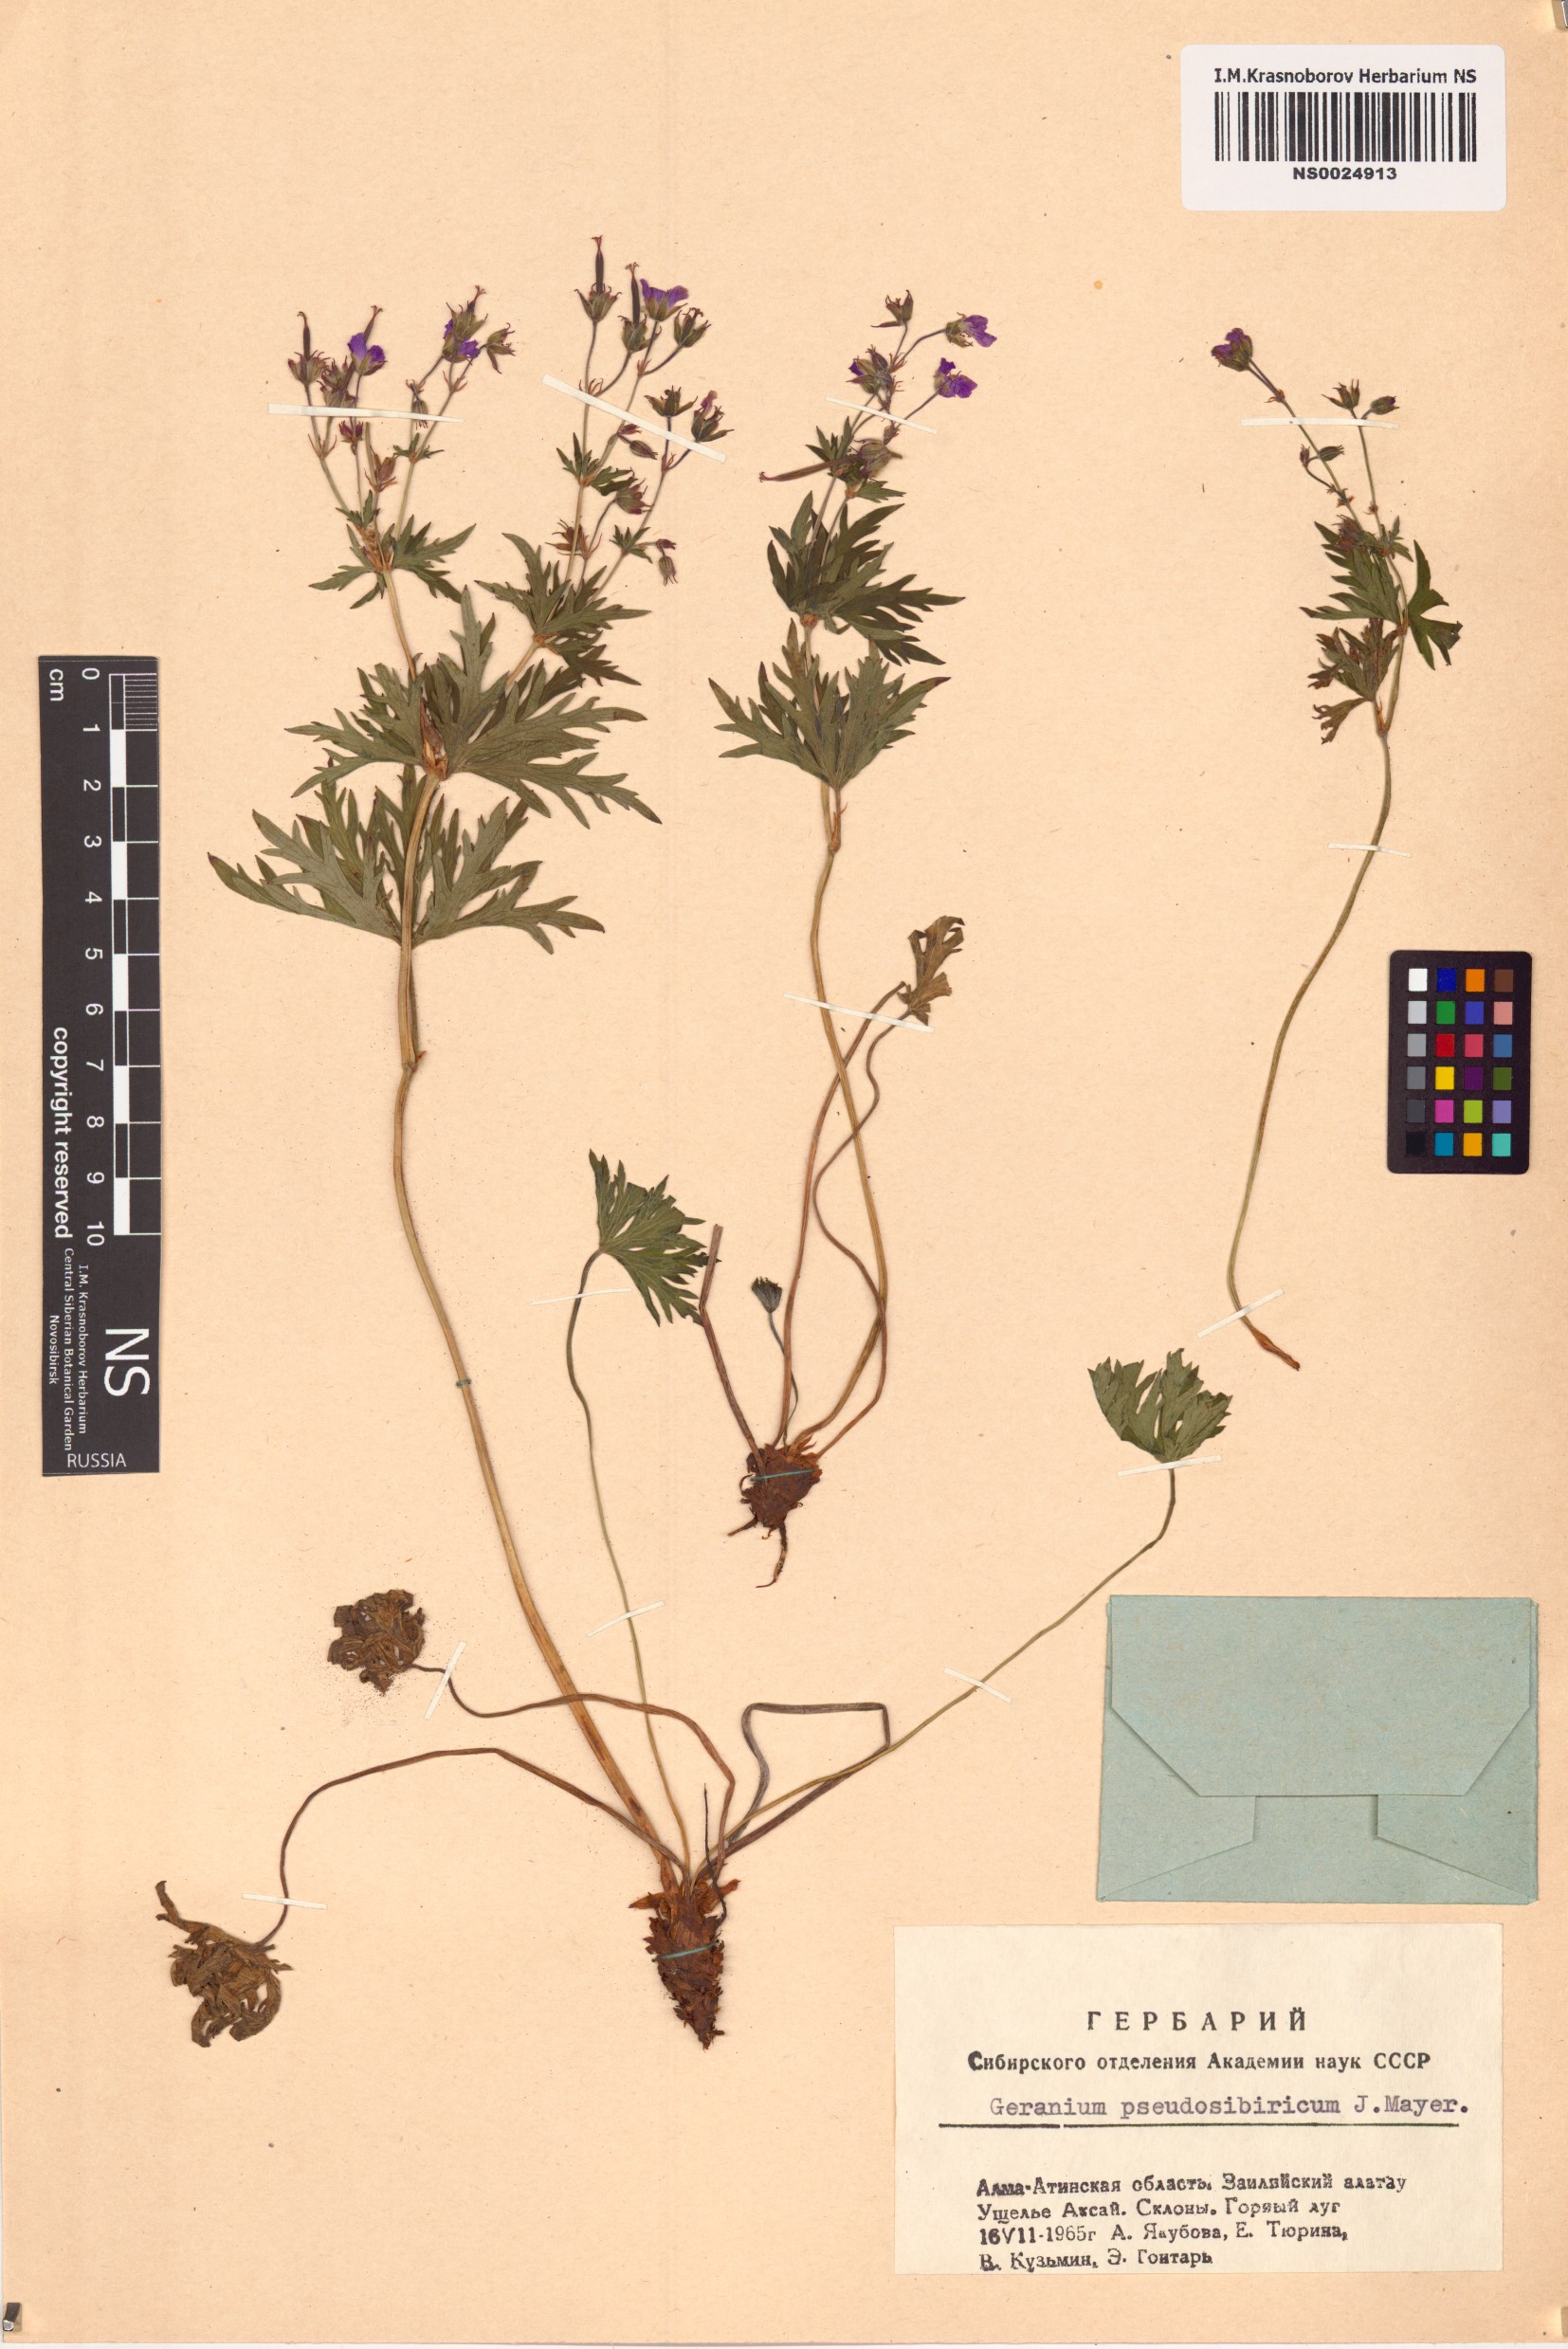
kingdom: Plantae
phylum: Tracheophyta
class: Magnoliopsida
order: Geraniales
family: Geraniaceae
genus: Geranium
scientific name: Geranium pseudosibiricum
